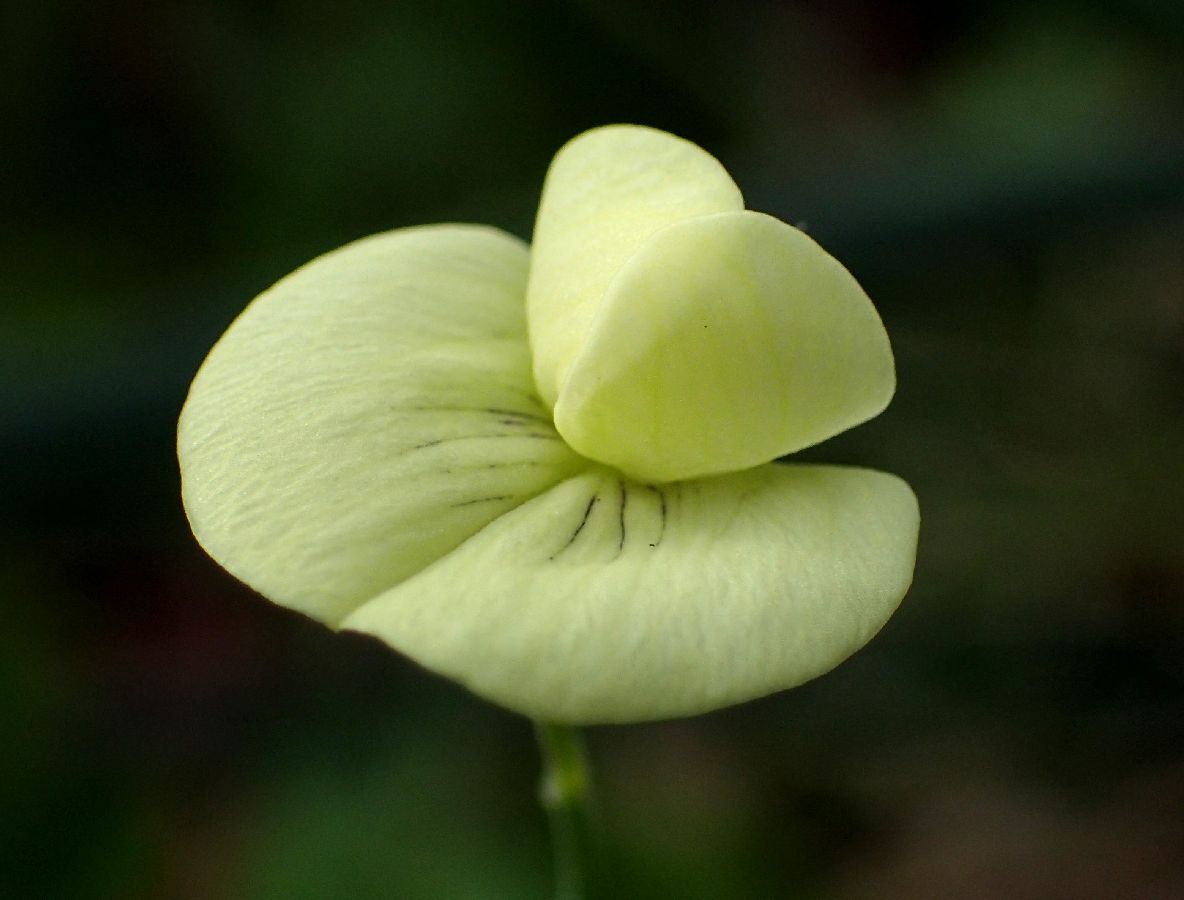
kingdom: Plantae
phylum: Tracheophyta
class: Magnoliopsida
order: Fabales
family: Fabaceae
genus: Lathyrus
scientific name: Lathyrus aphaca
